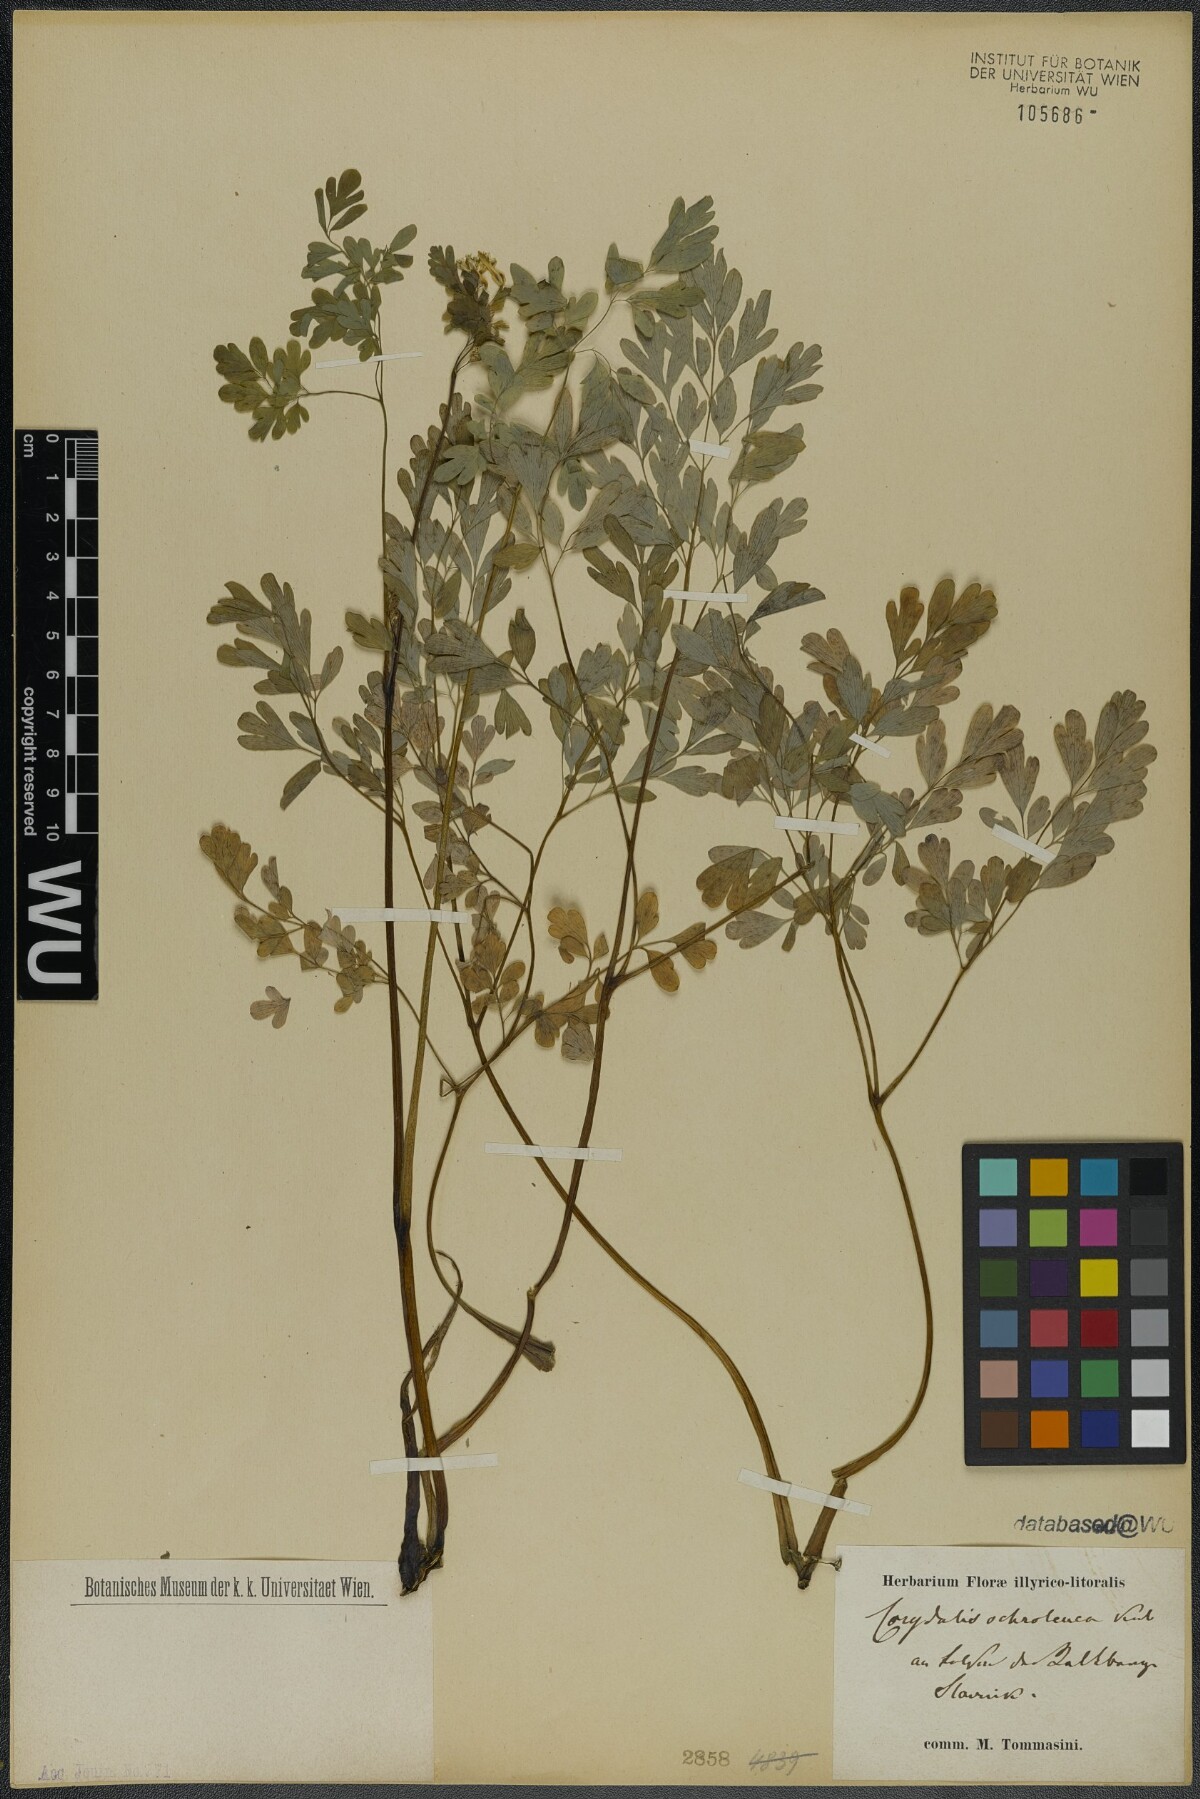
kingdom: Plantae
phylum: Tracheophyta
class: Magnoliopsida
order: Ranunculales
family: Papaveraceae
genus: Pseudofumaria
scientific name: Pseudofumaria alba
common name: Pale corydalis
